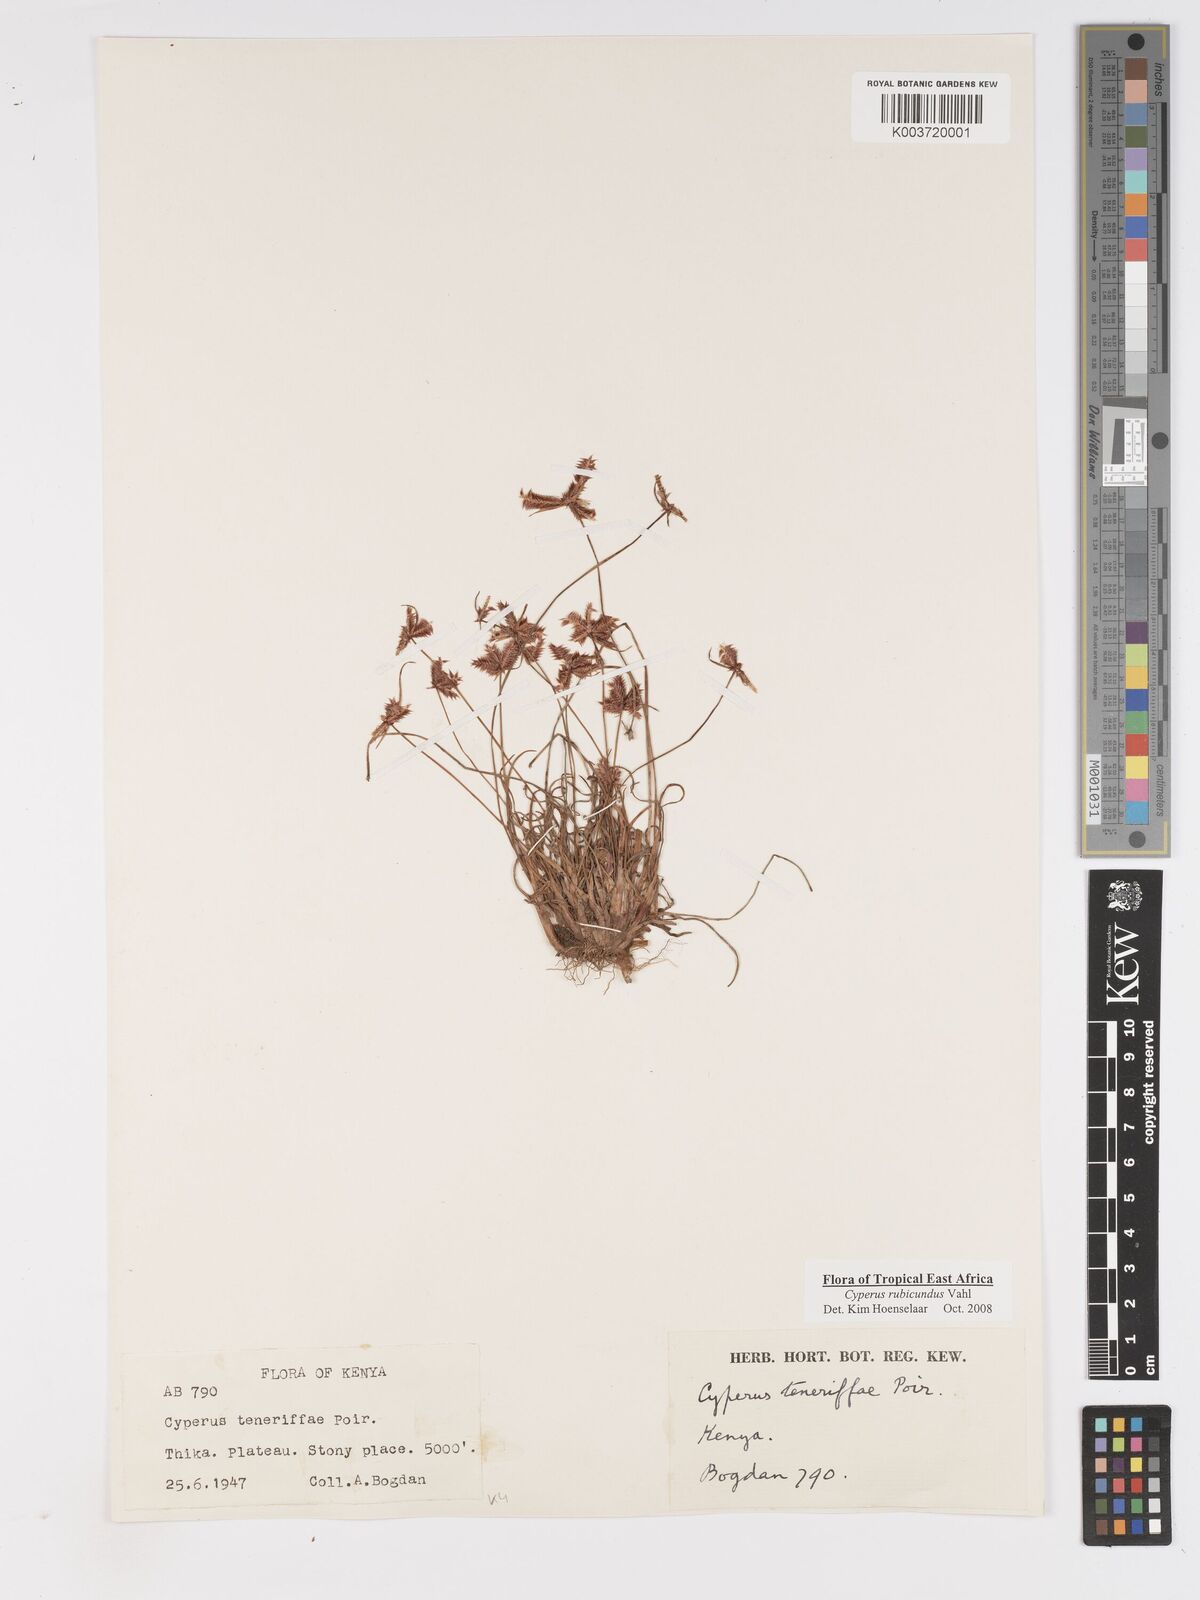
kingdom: Plantae
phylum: Tracheophyta
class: Liliopsida
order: Poales
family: Cyperaceae
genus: Cyperus
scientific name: Cyperus rubicundus
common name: Coco-grass
